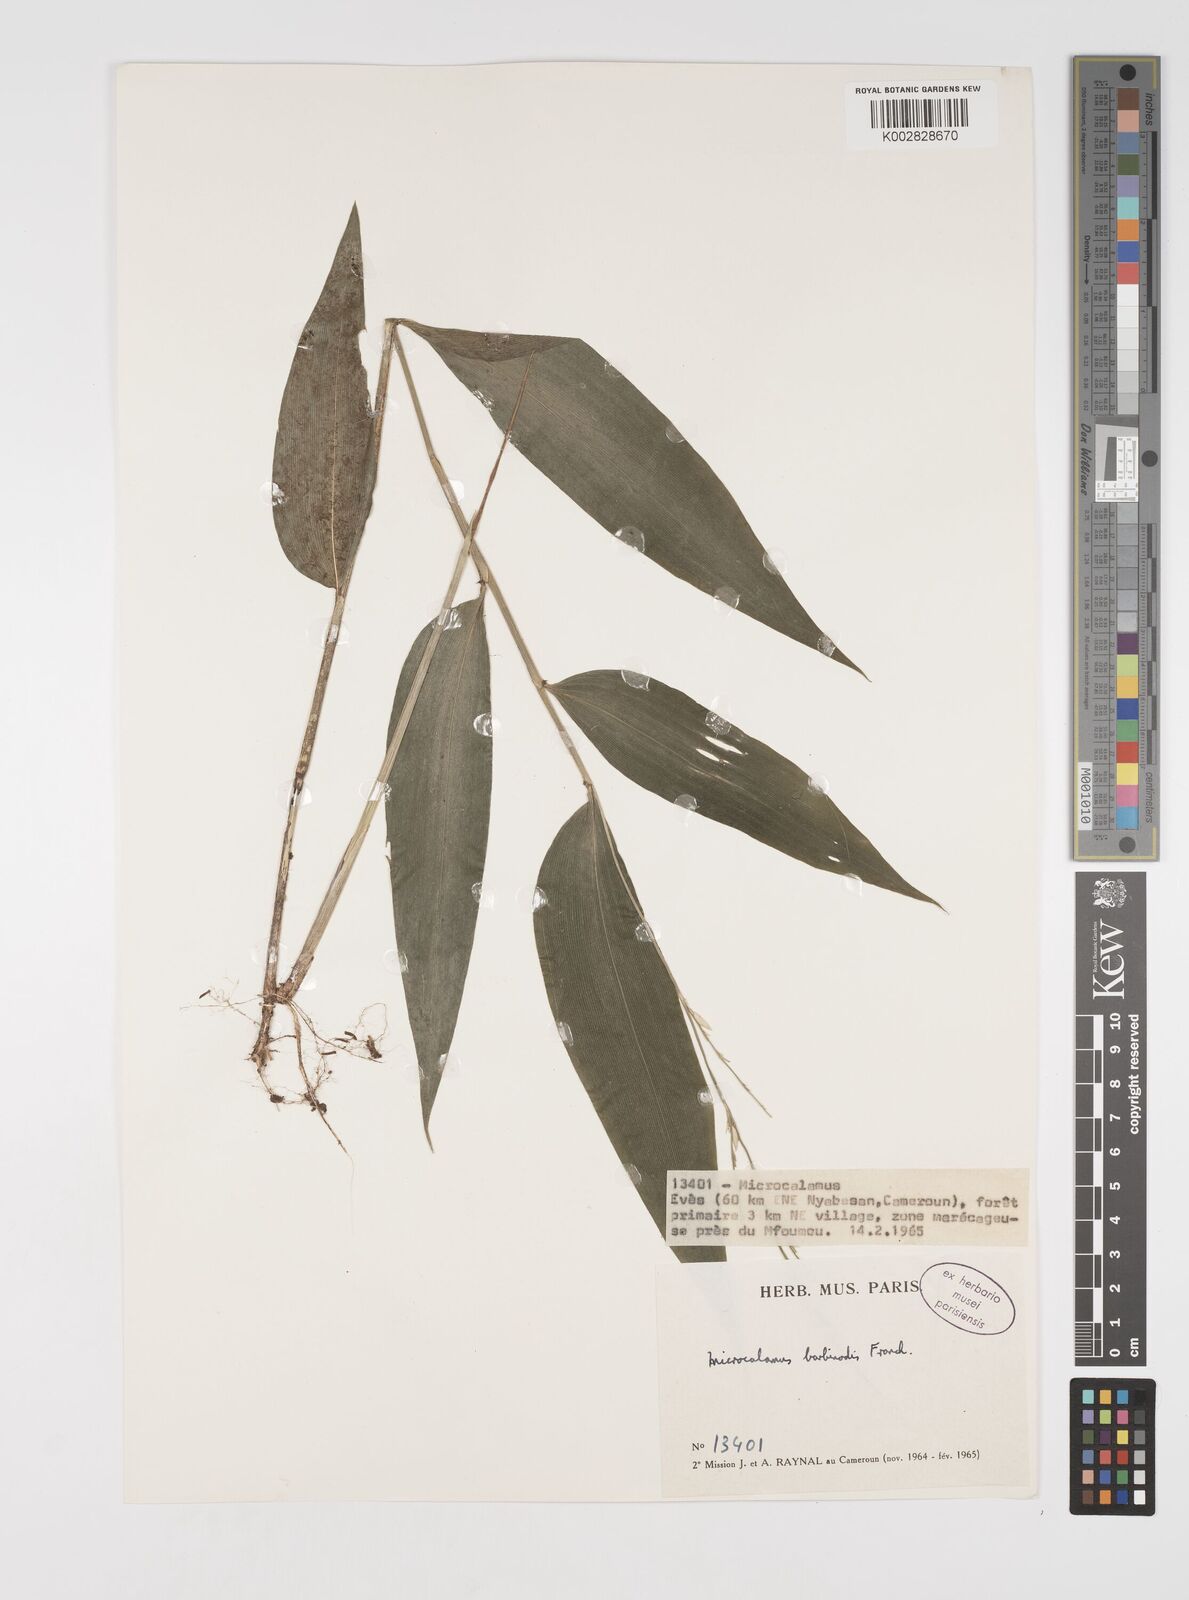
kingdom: Plantae
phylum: Tracheophyta
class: Liliopsida
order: Poales
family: Poaceae
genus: Microcalamus
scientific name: Microcalamus barbinodis
